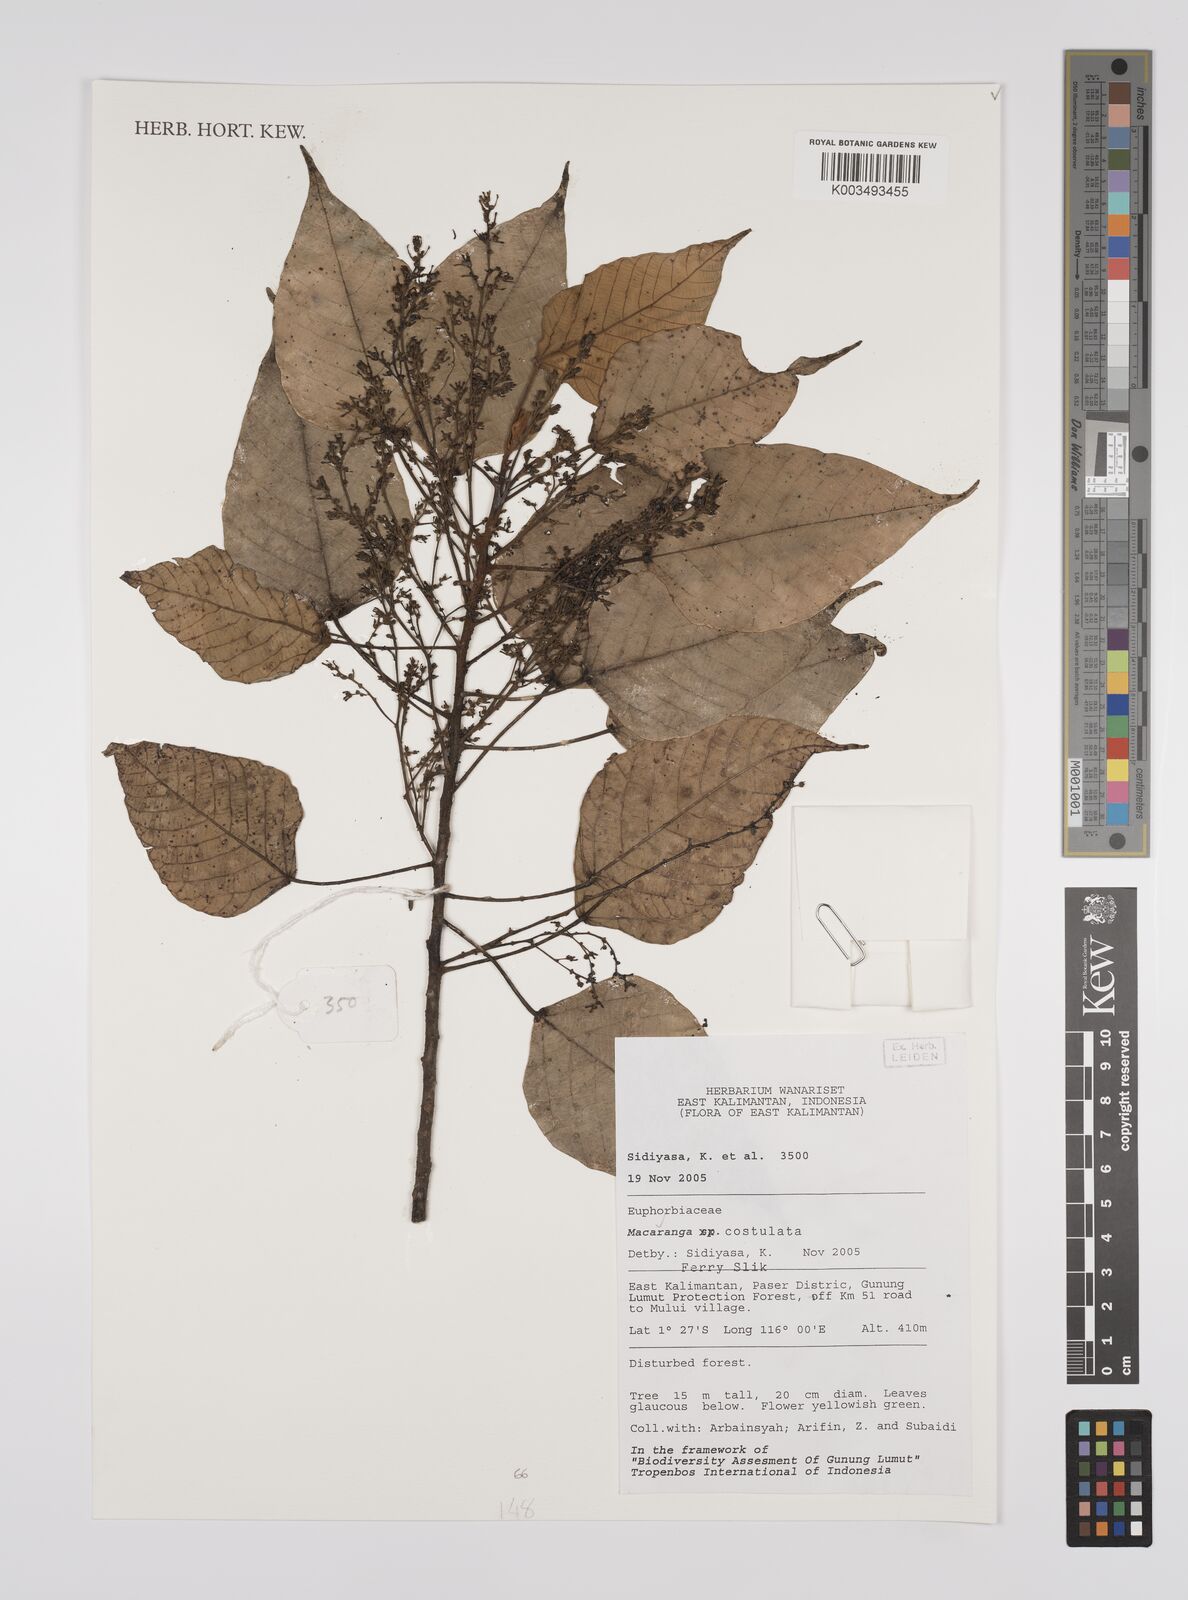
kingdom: Plantae
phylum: Tracheophyta
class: Magnoliopsida
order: Malpighiales
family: Euphorbiaceae
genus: Macaranga
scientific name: Macaranga costulata
